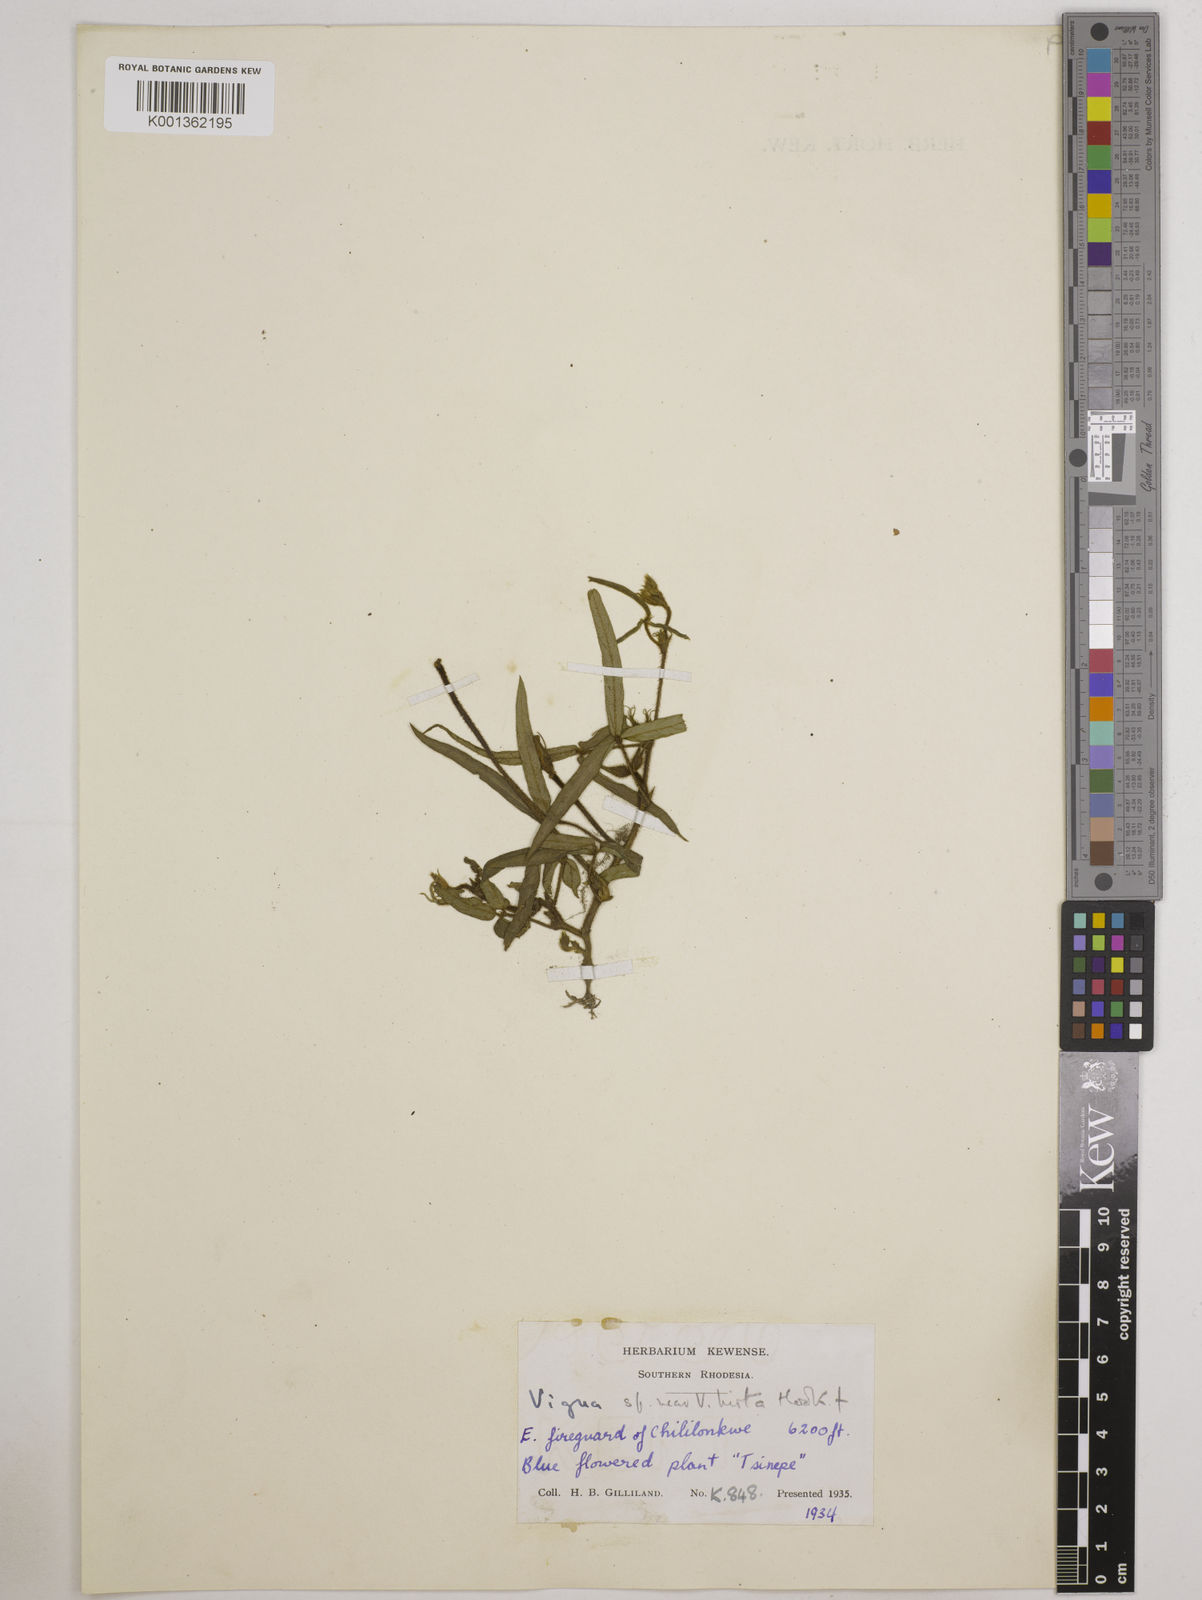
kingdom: Plantae
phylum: Tracheophyta
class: Magnoliopsida
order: Fabales
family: Fabaceae
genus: Vigna
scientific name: Vigna vexillata
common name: Zombi pea
